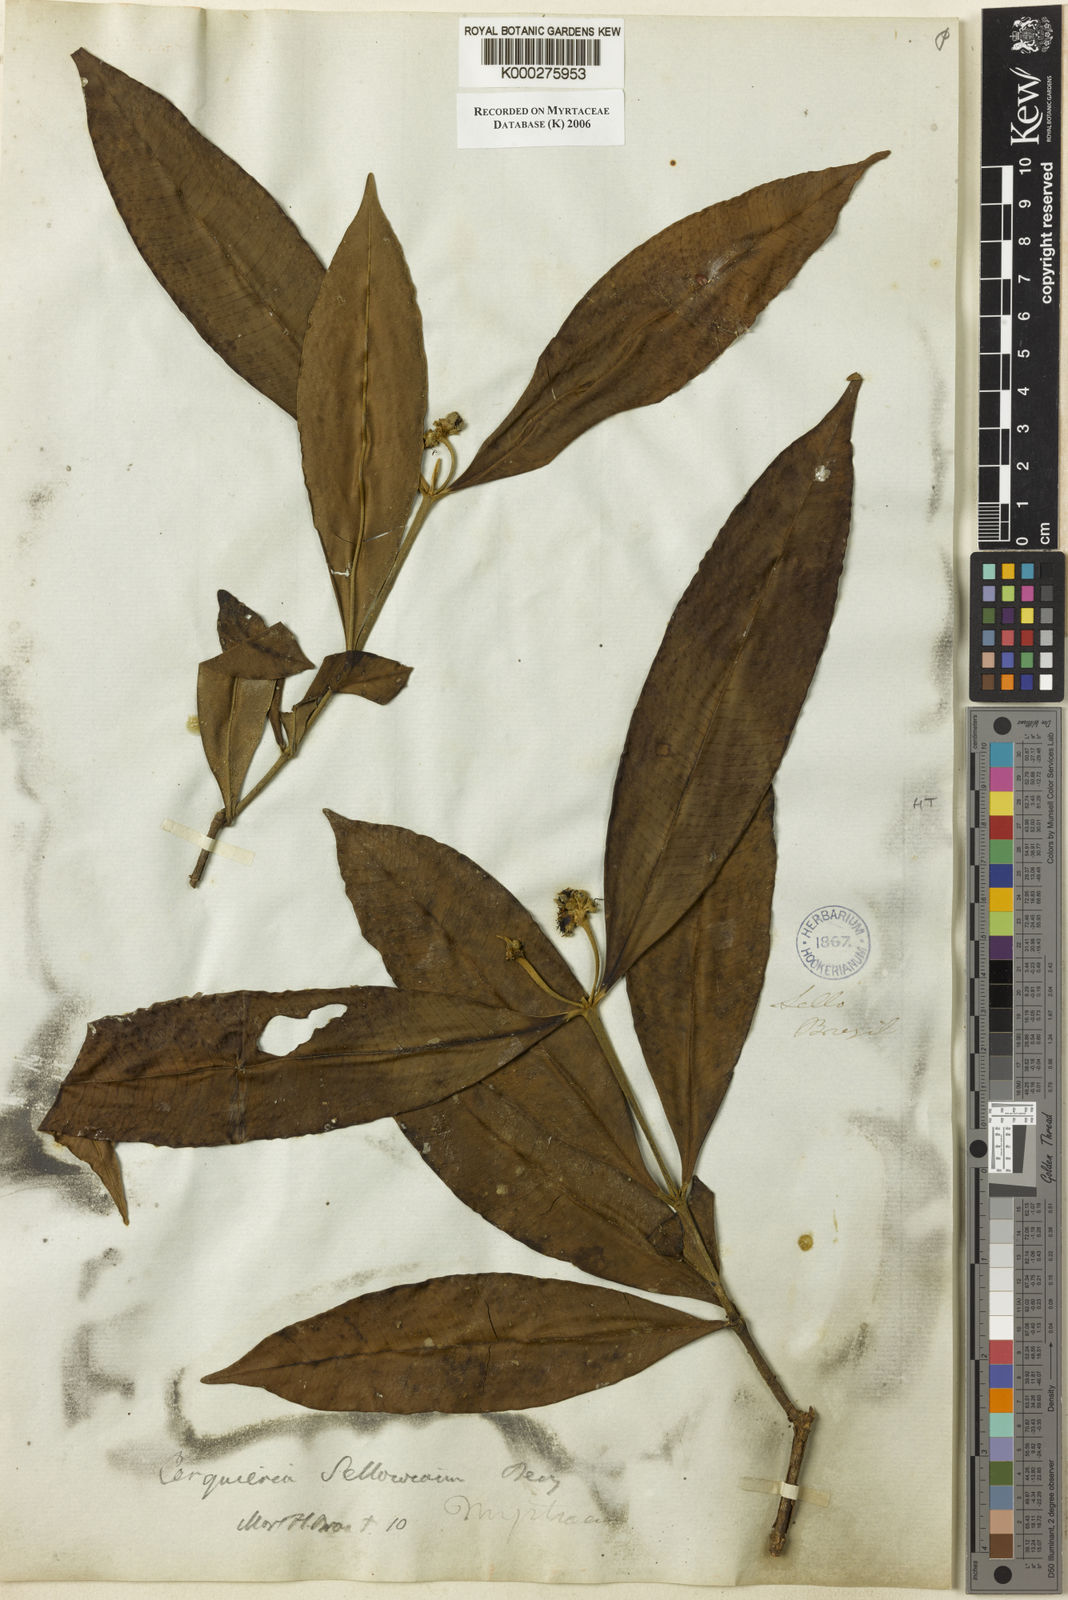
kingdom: Plantae
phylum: Tracheophyta
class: Magnoliopsida
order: Myrtales
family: Myrtaceae
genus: Myrcia
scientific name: Myrcia cerqueiria
